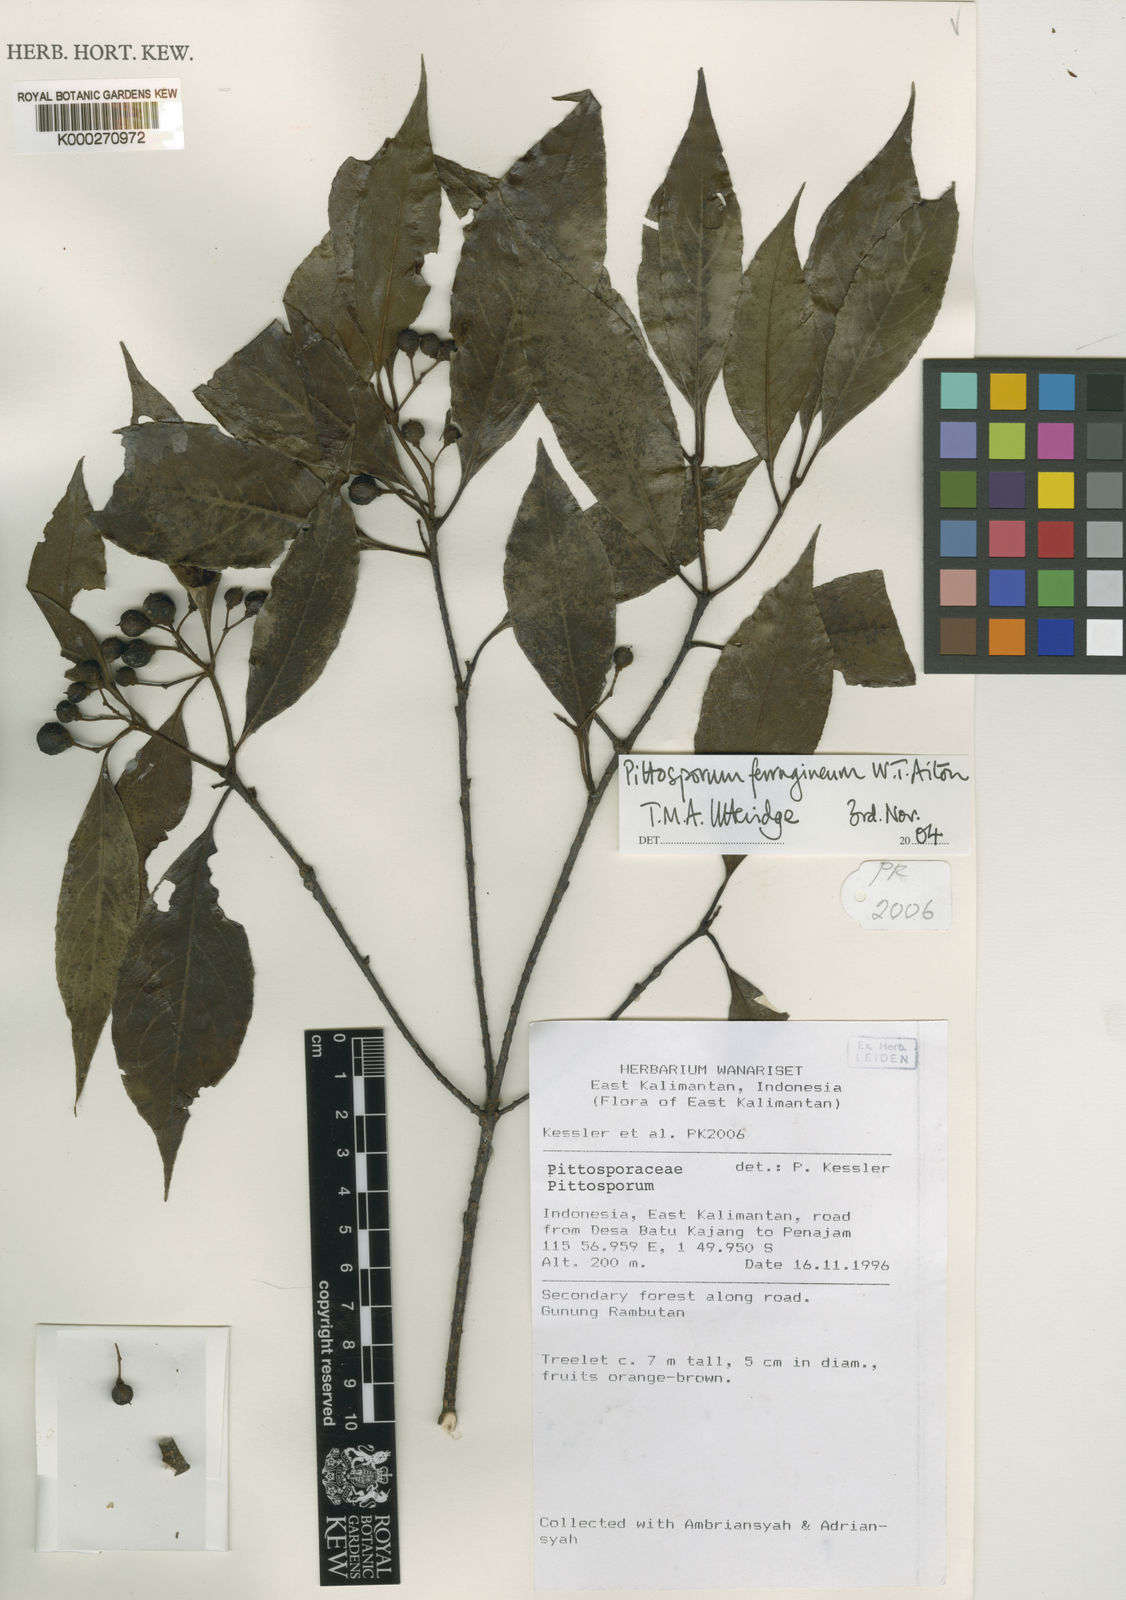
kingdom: Plantae
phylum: Tracheophyta
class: Magnoliopsida
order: Apiales
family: Pittosporaceae
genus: Pittosporum
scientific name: Pittosporum ferrugineum
